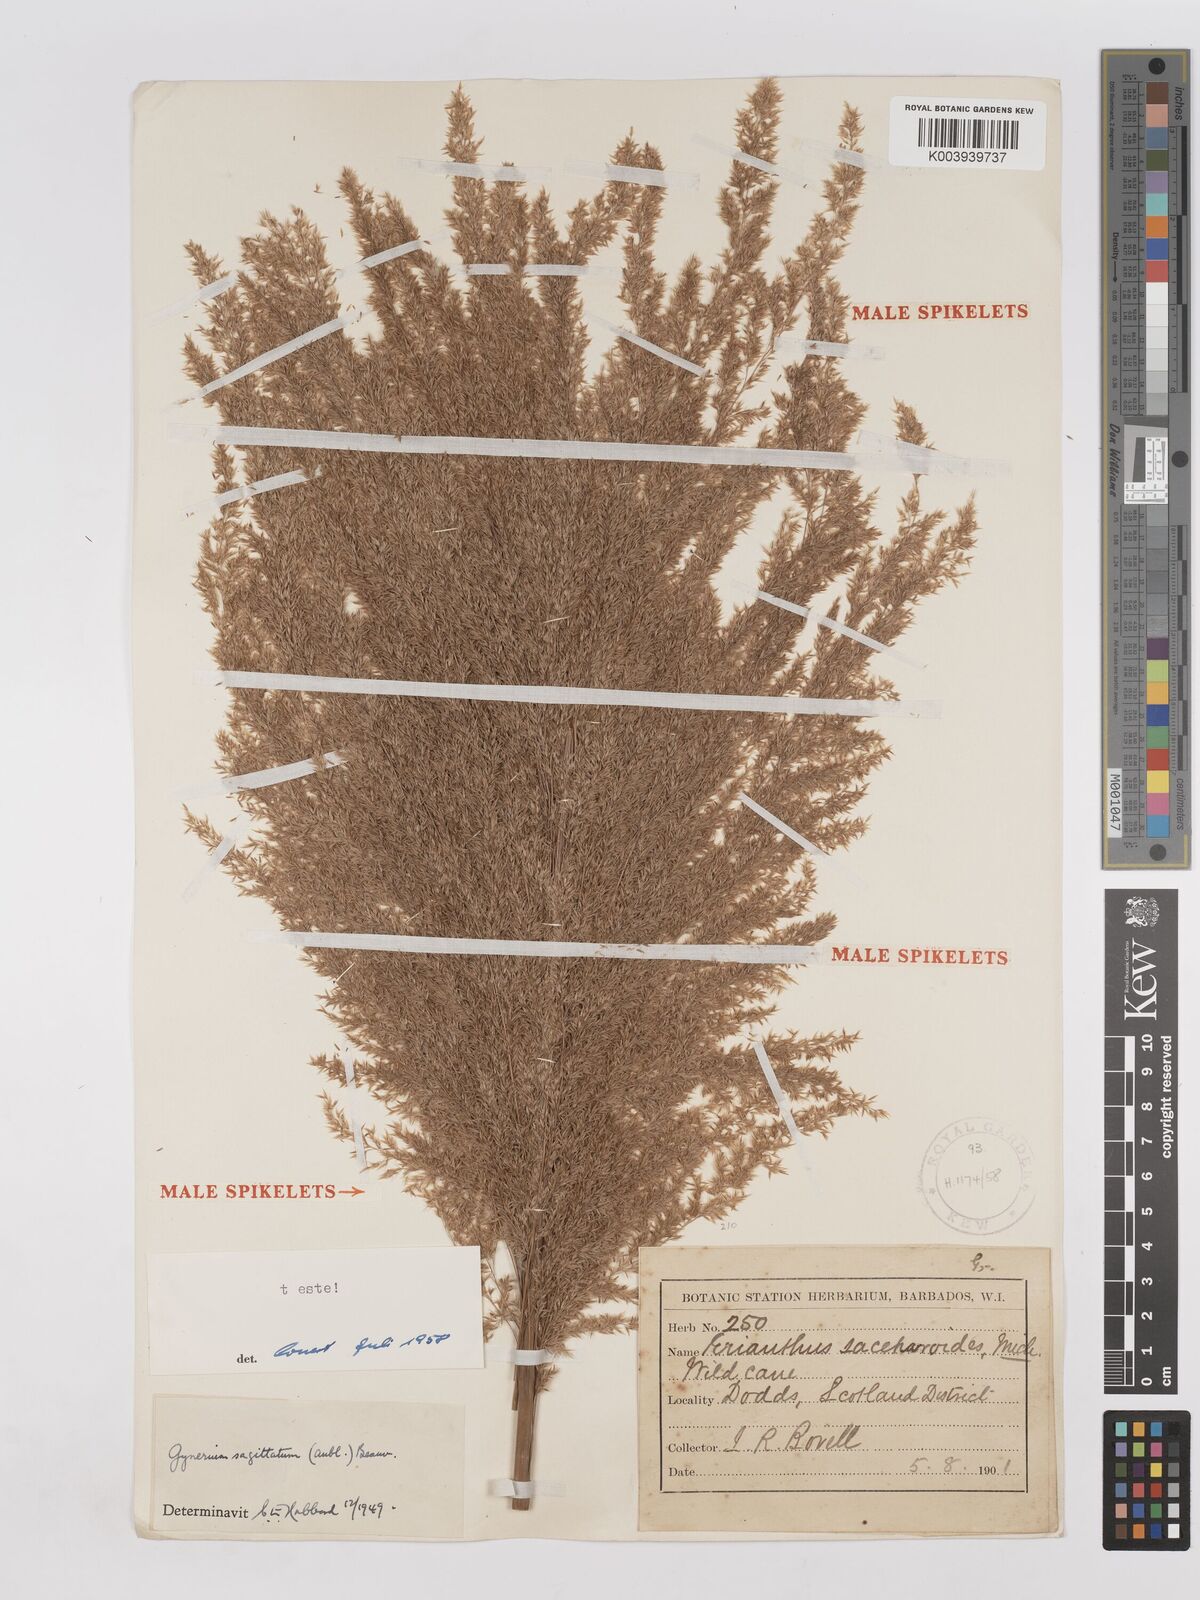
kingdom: Plantae
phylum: Tracheophyta
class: Liliopsida
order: Poales
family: Poaceae
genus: Gynerium
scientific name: Gynerium sagittatum
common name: Wild cane
